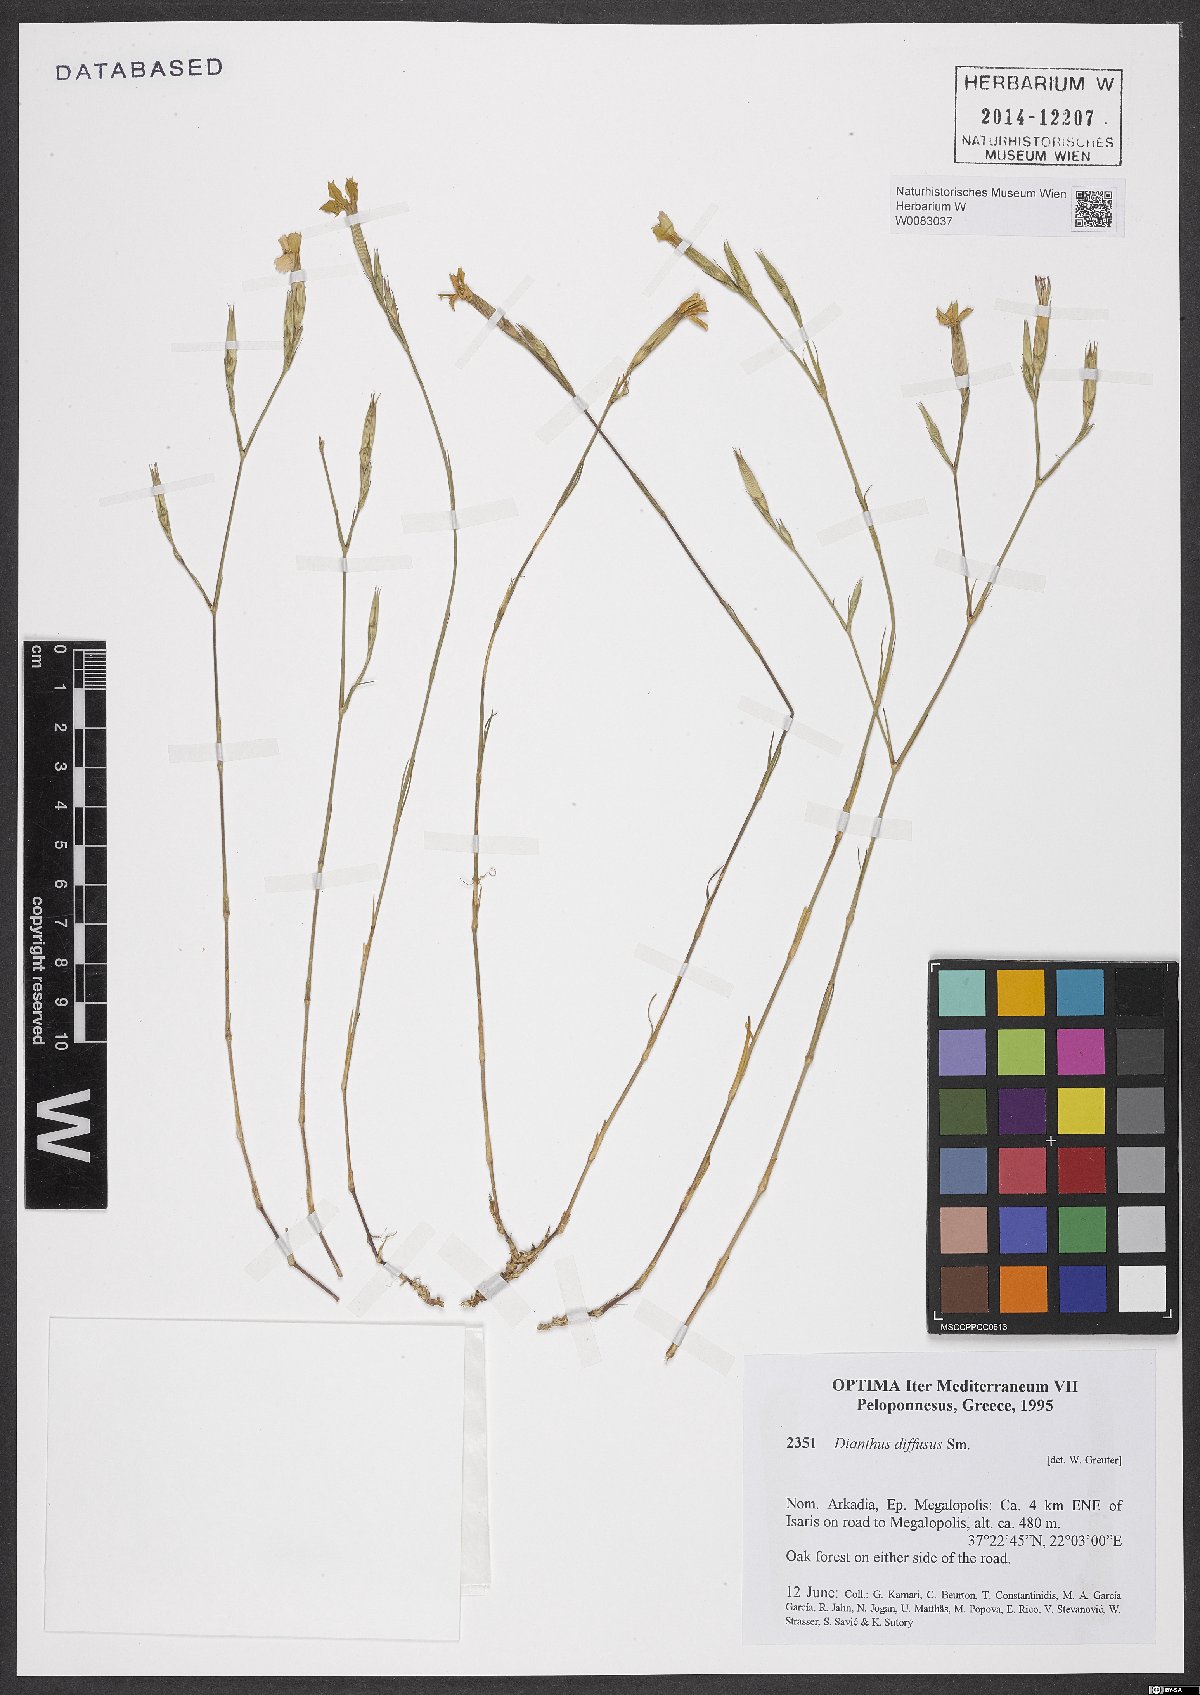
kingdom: Plantae
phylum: Tracheophyta
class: Magnoliopsida
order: Caryophyllales
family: Caryophyllaceae
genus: Dianthus
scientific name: Dianthus diffusus
